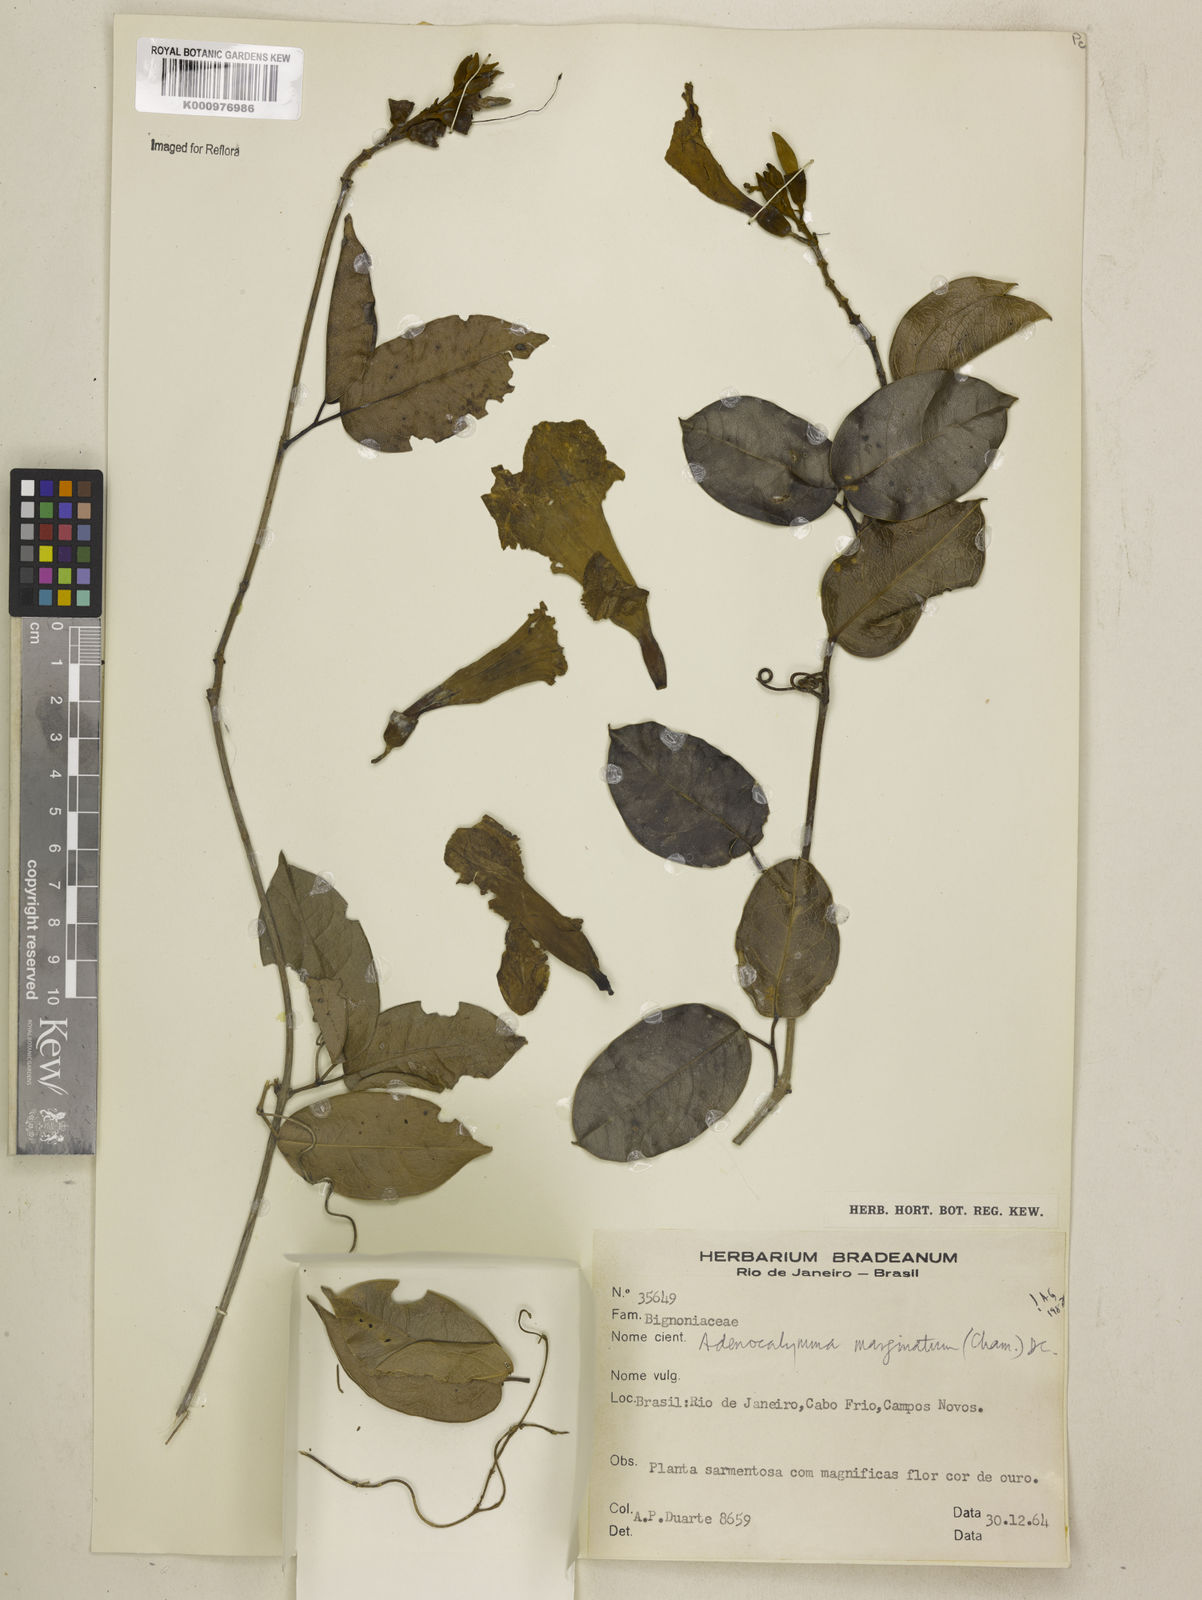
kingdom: Plantae
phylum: Tracheophyta
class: Magnoliopsida
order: Lamiales
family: Bignoniaceae
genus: Adenocalymma
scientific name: Adenocalymma marginatum
